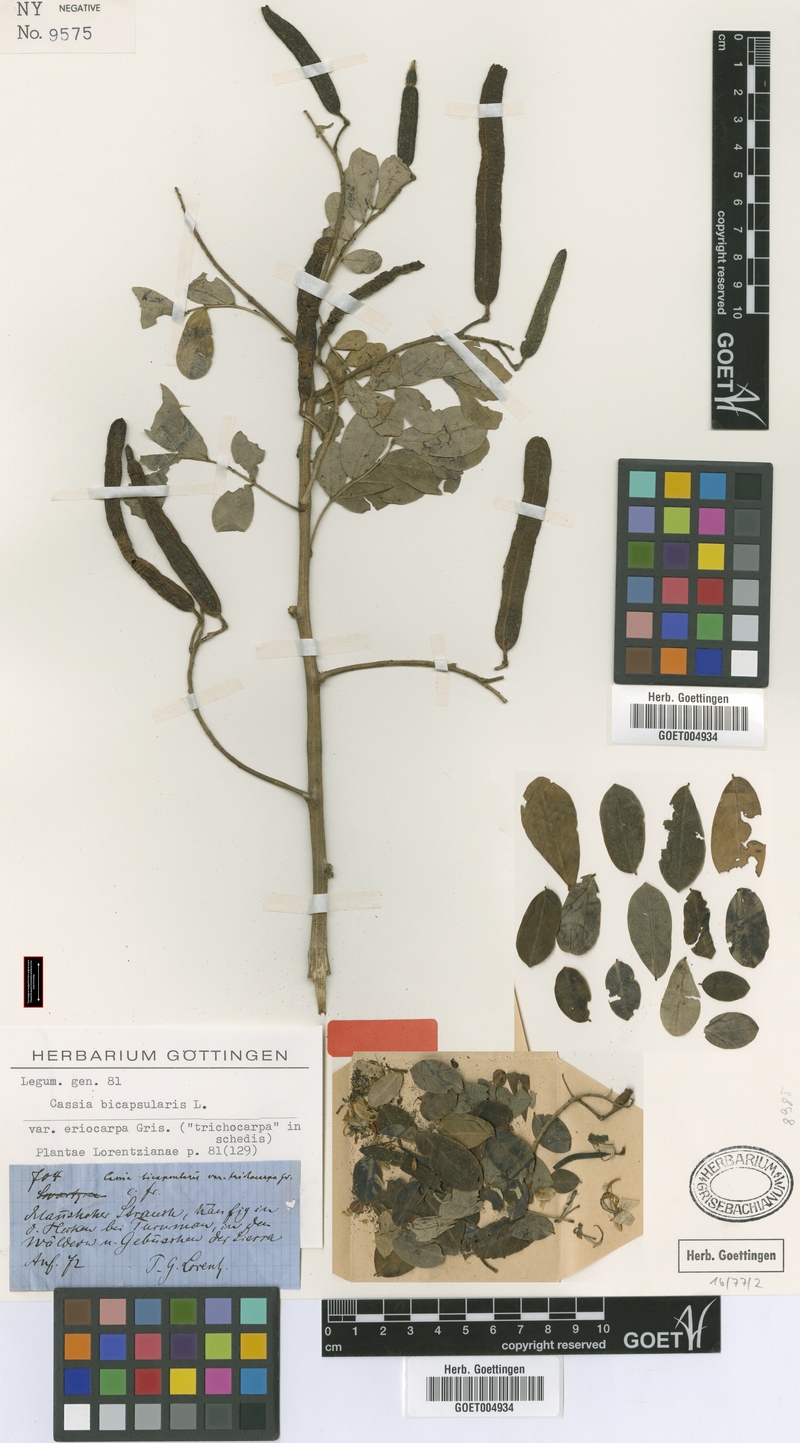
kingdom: Plantae
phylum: Tracheophyta
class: Magnoliopsida
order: Fabales
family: Fabaceae
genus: Senna
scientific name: Senna pendula
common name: Easter cassia
